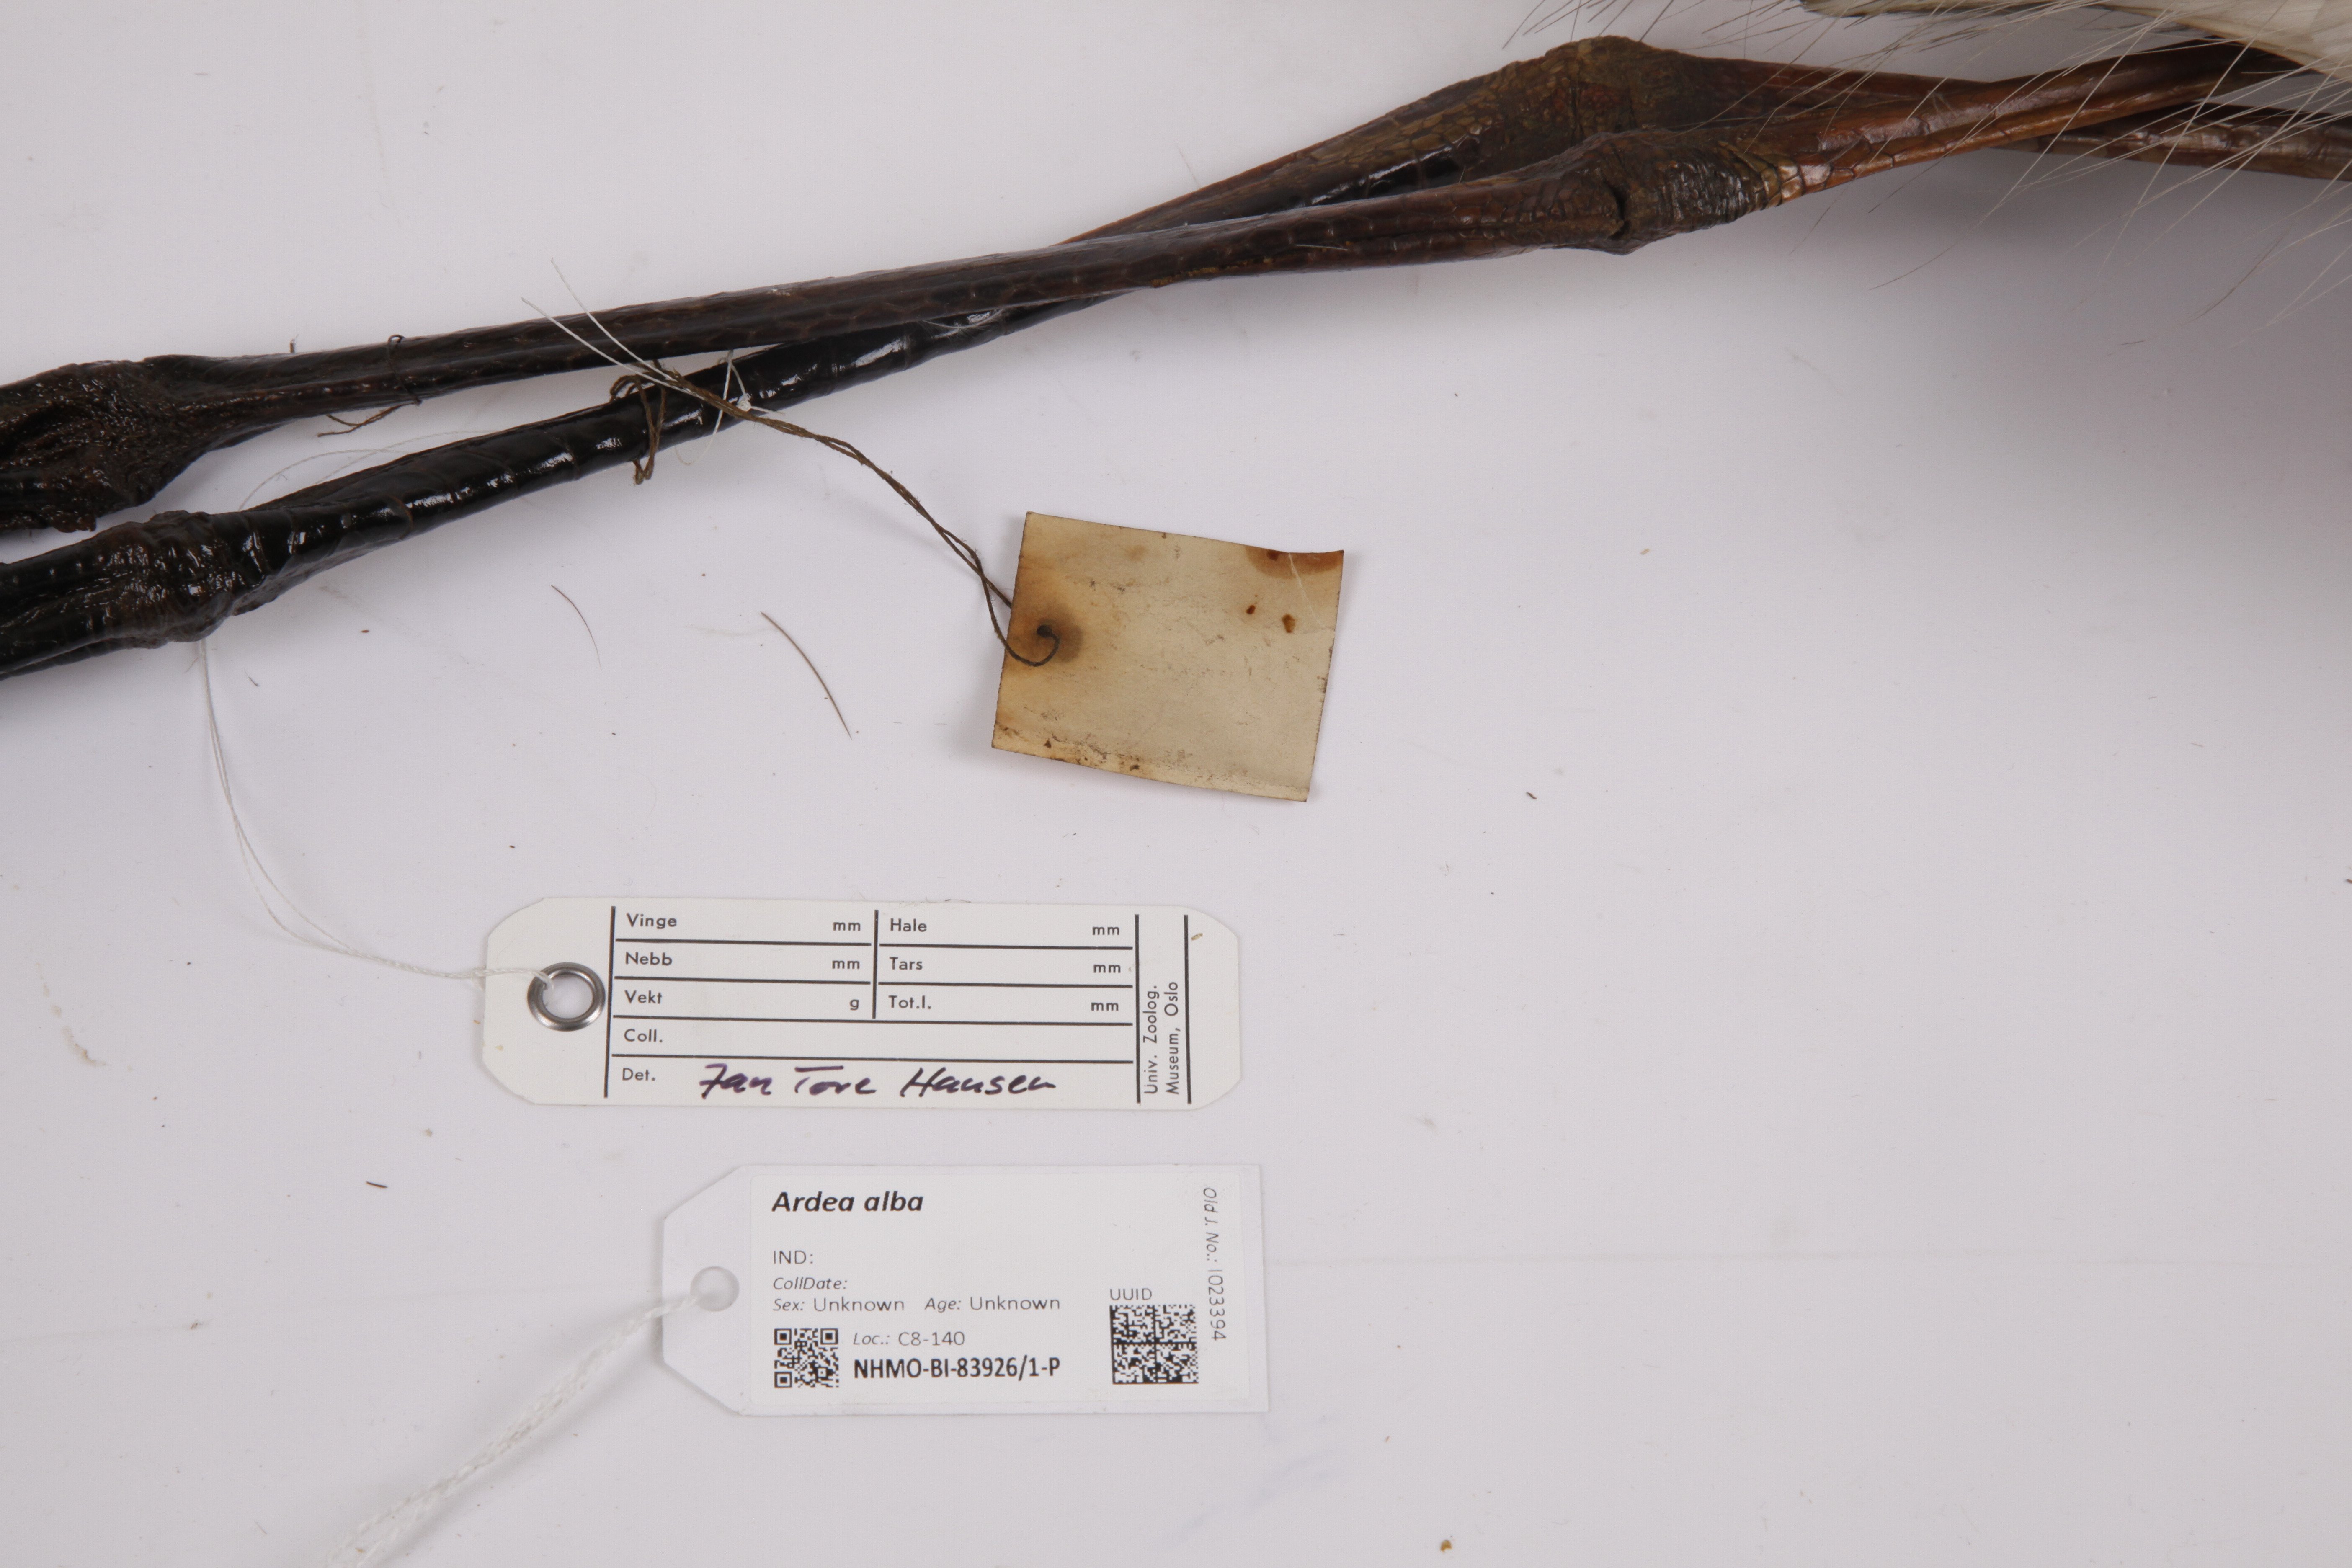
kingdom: Animalia
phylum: Chordata
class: Aves
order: Pelecaniformes
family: Ardeidae
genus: Ardea
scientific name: Ardea alba
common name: Great egret
